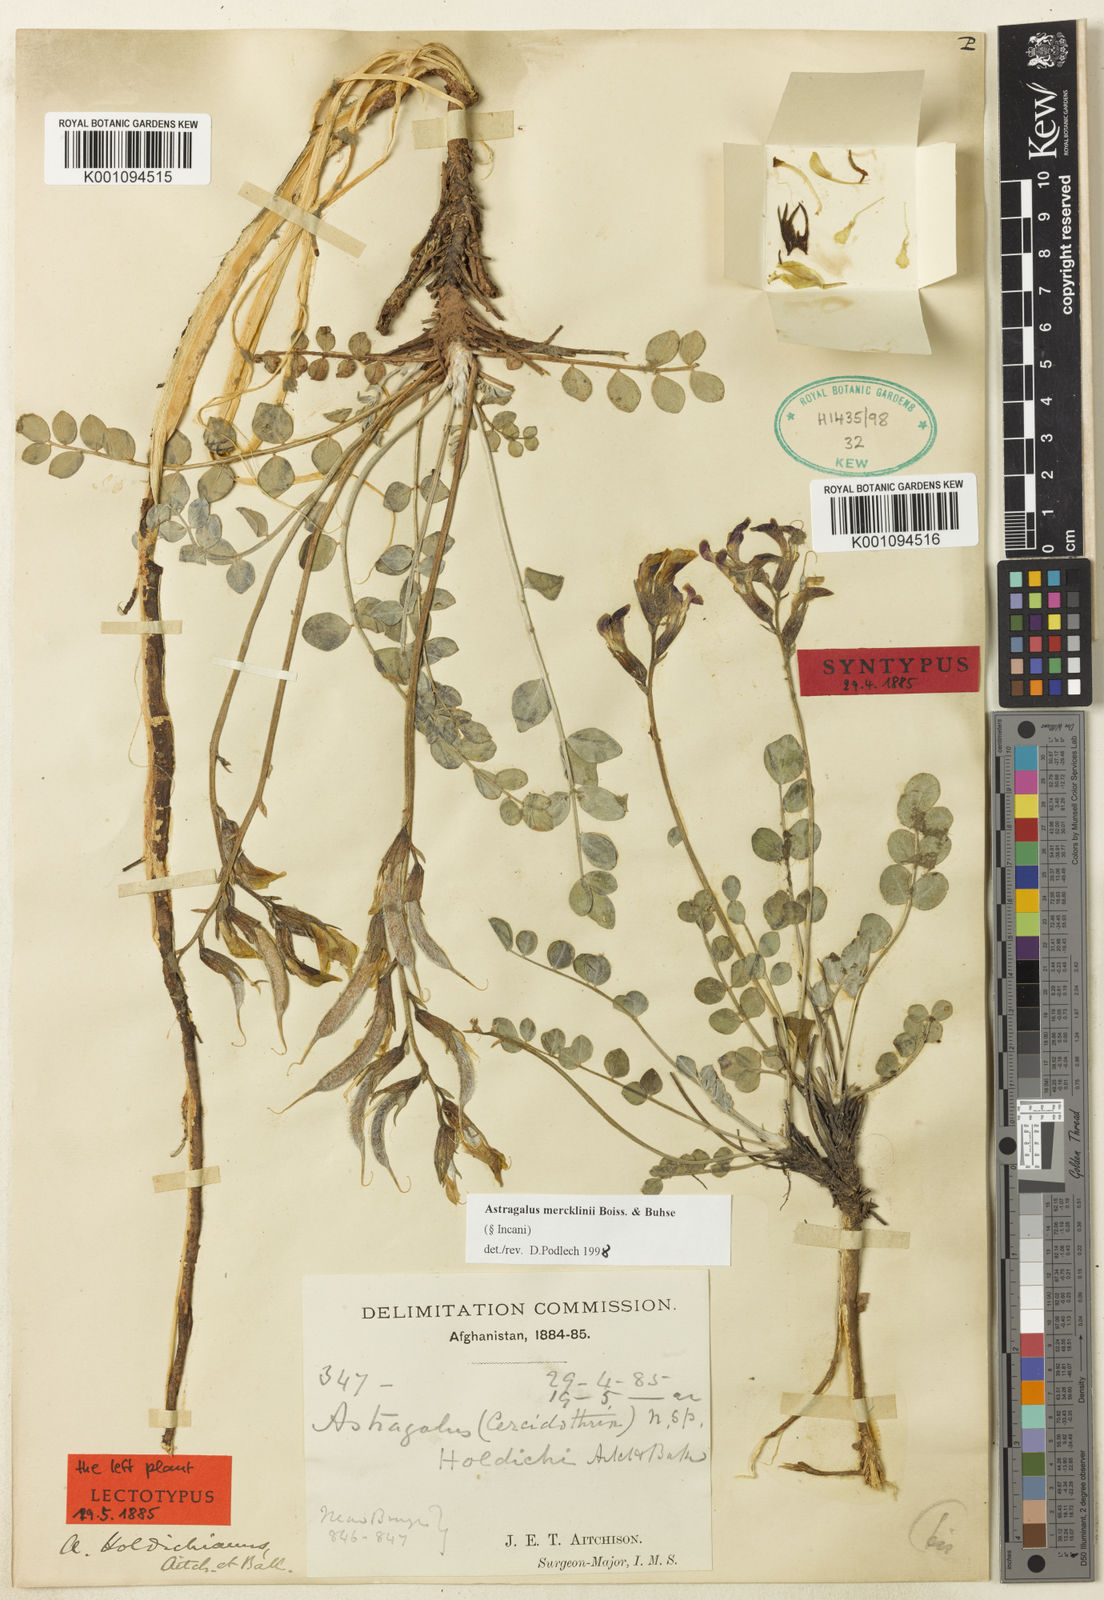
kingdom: Plantae
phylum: Tracheophyta
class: Magnoliopsida
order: Fabales
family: Fabaceae
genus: Astragalus
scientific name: Astragalus
